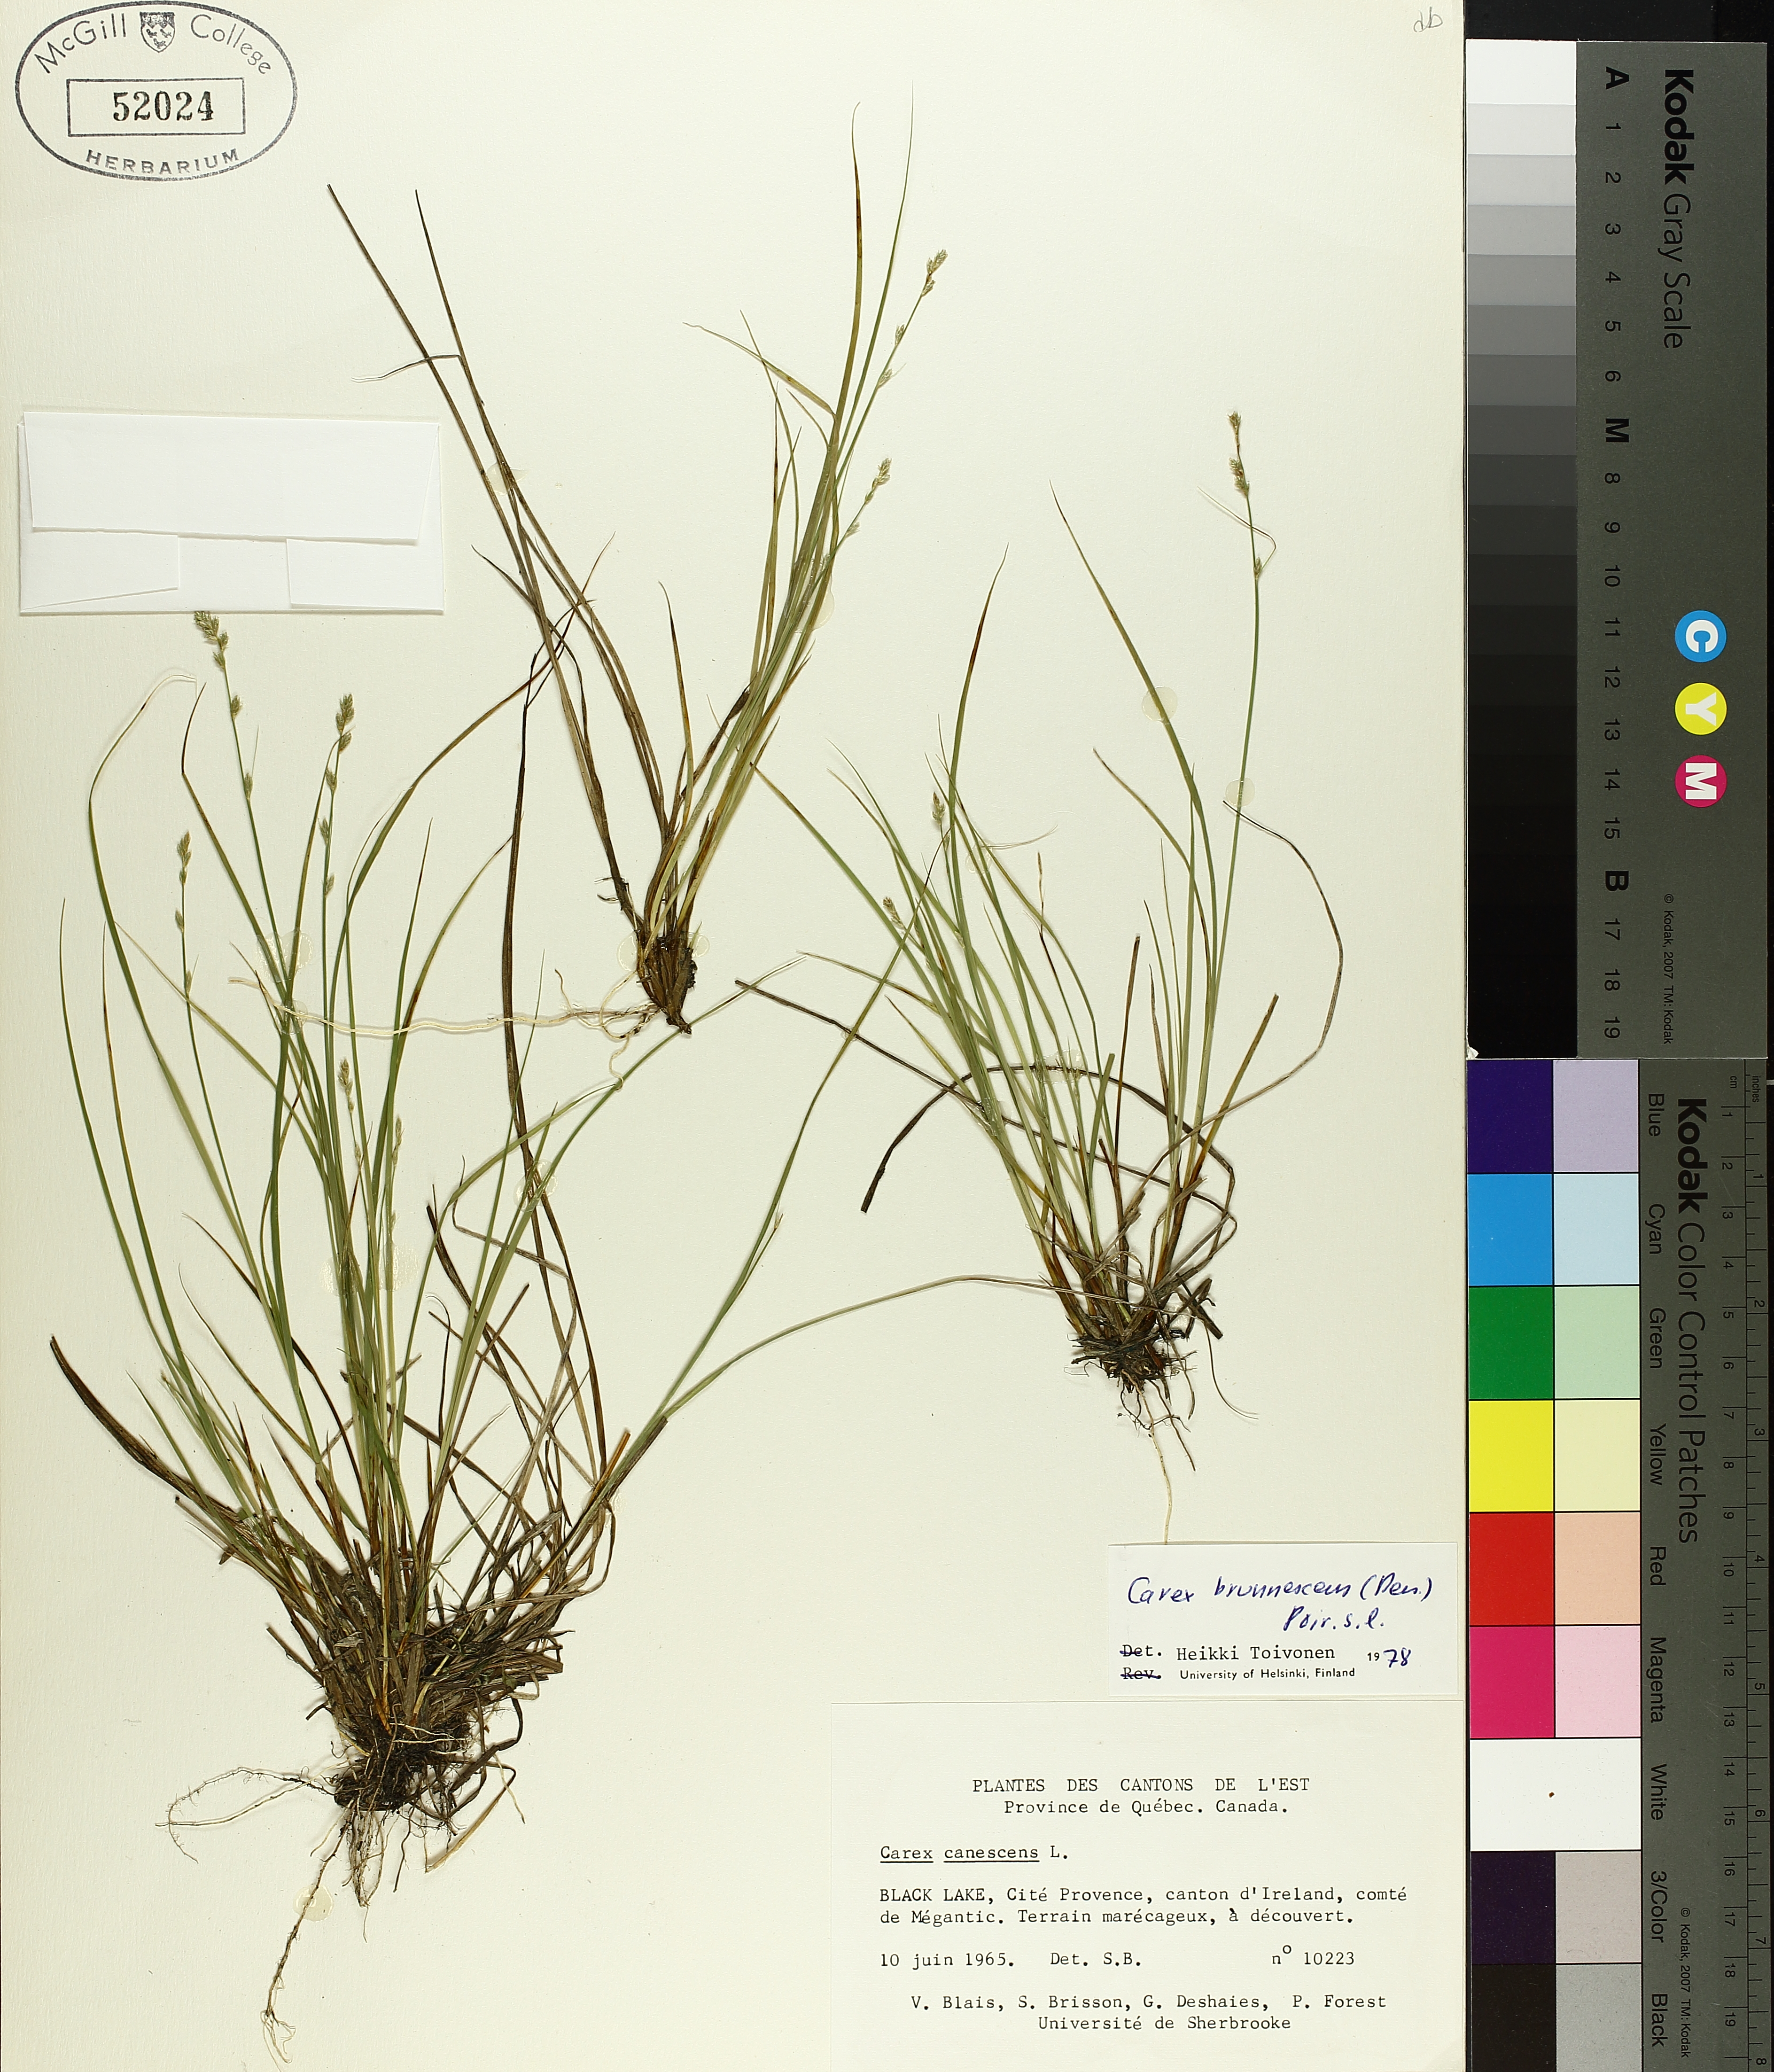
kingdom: Plantae
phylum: Tracheophyta
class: Liliopsida
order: Poales
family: Cyperaceae
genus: Carex
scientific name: Carex brunnescens
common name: Brown sedge
